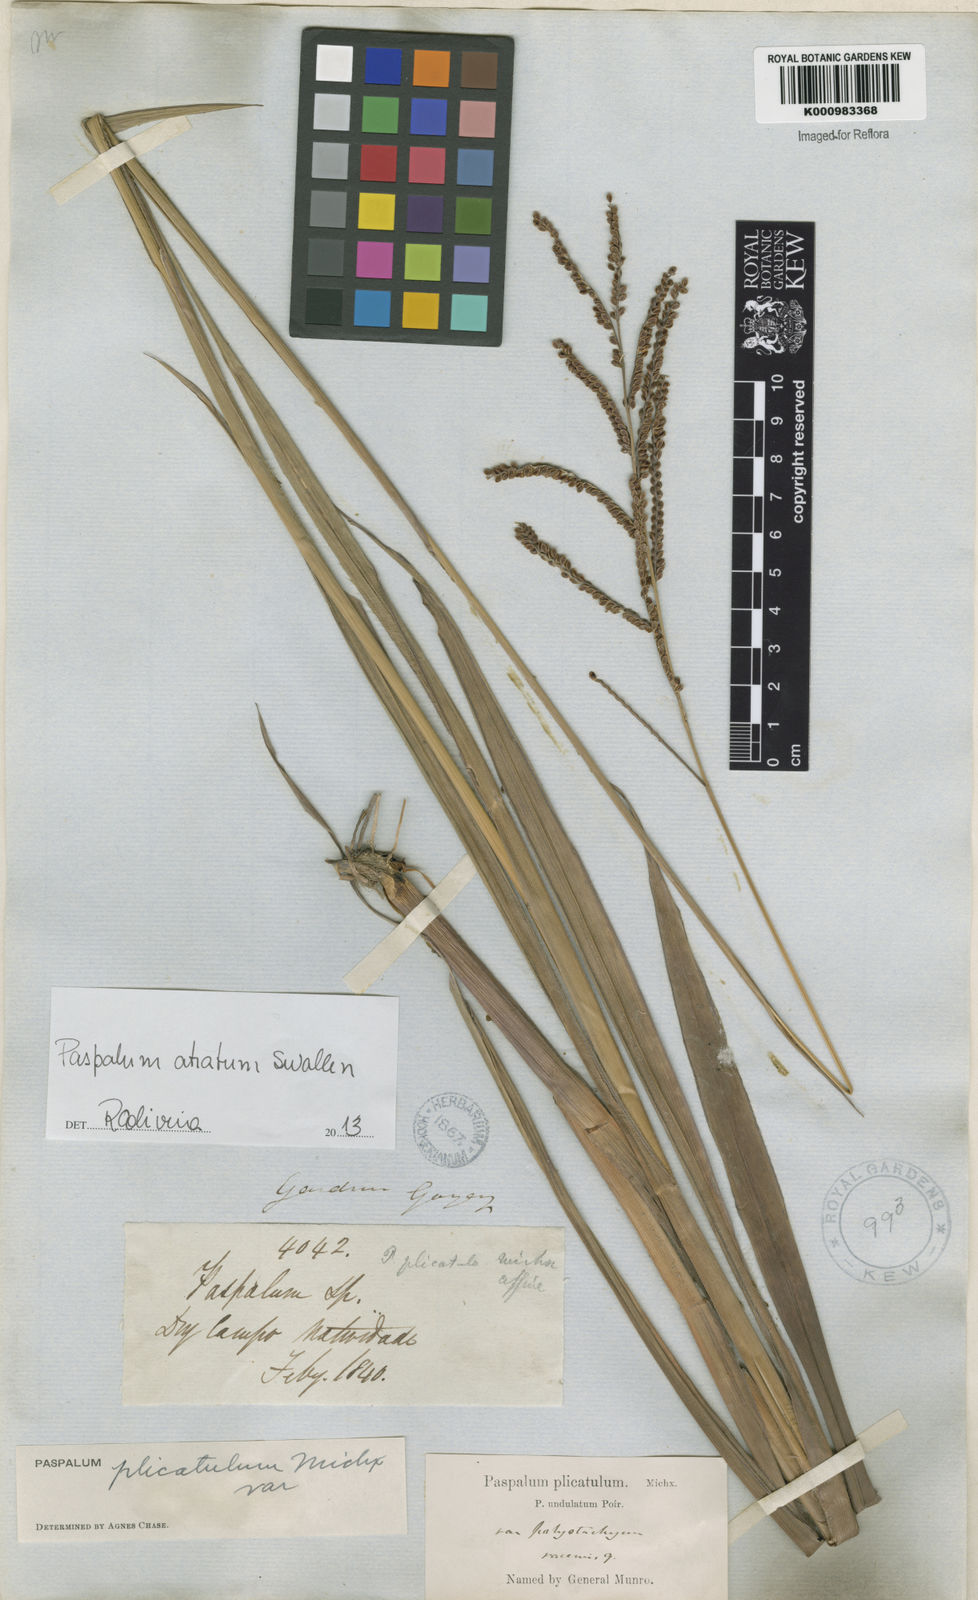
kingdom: Plantae
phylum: Tracheophyta
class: Liliopsida
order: Poales
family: Poaceae
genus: Paspalum
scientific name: Paspalum atratum
